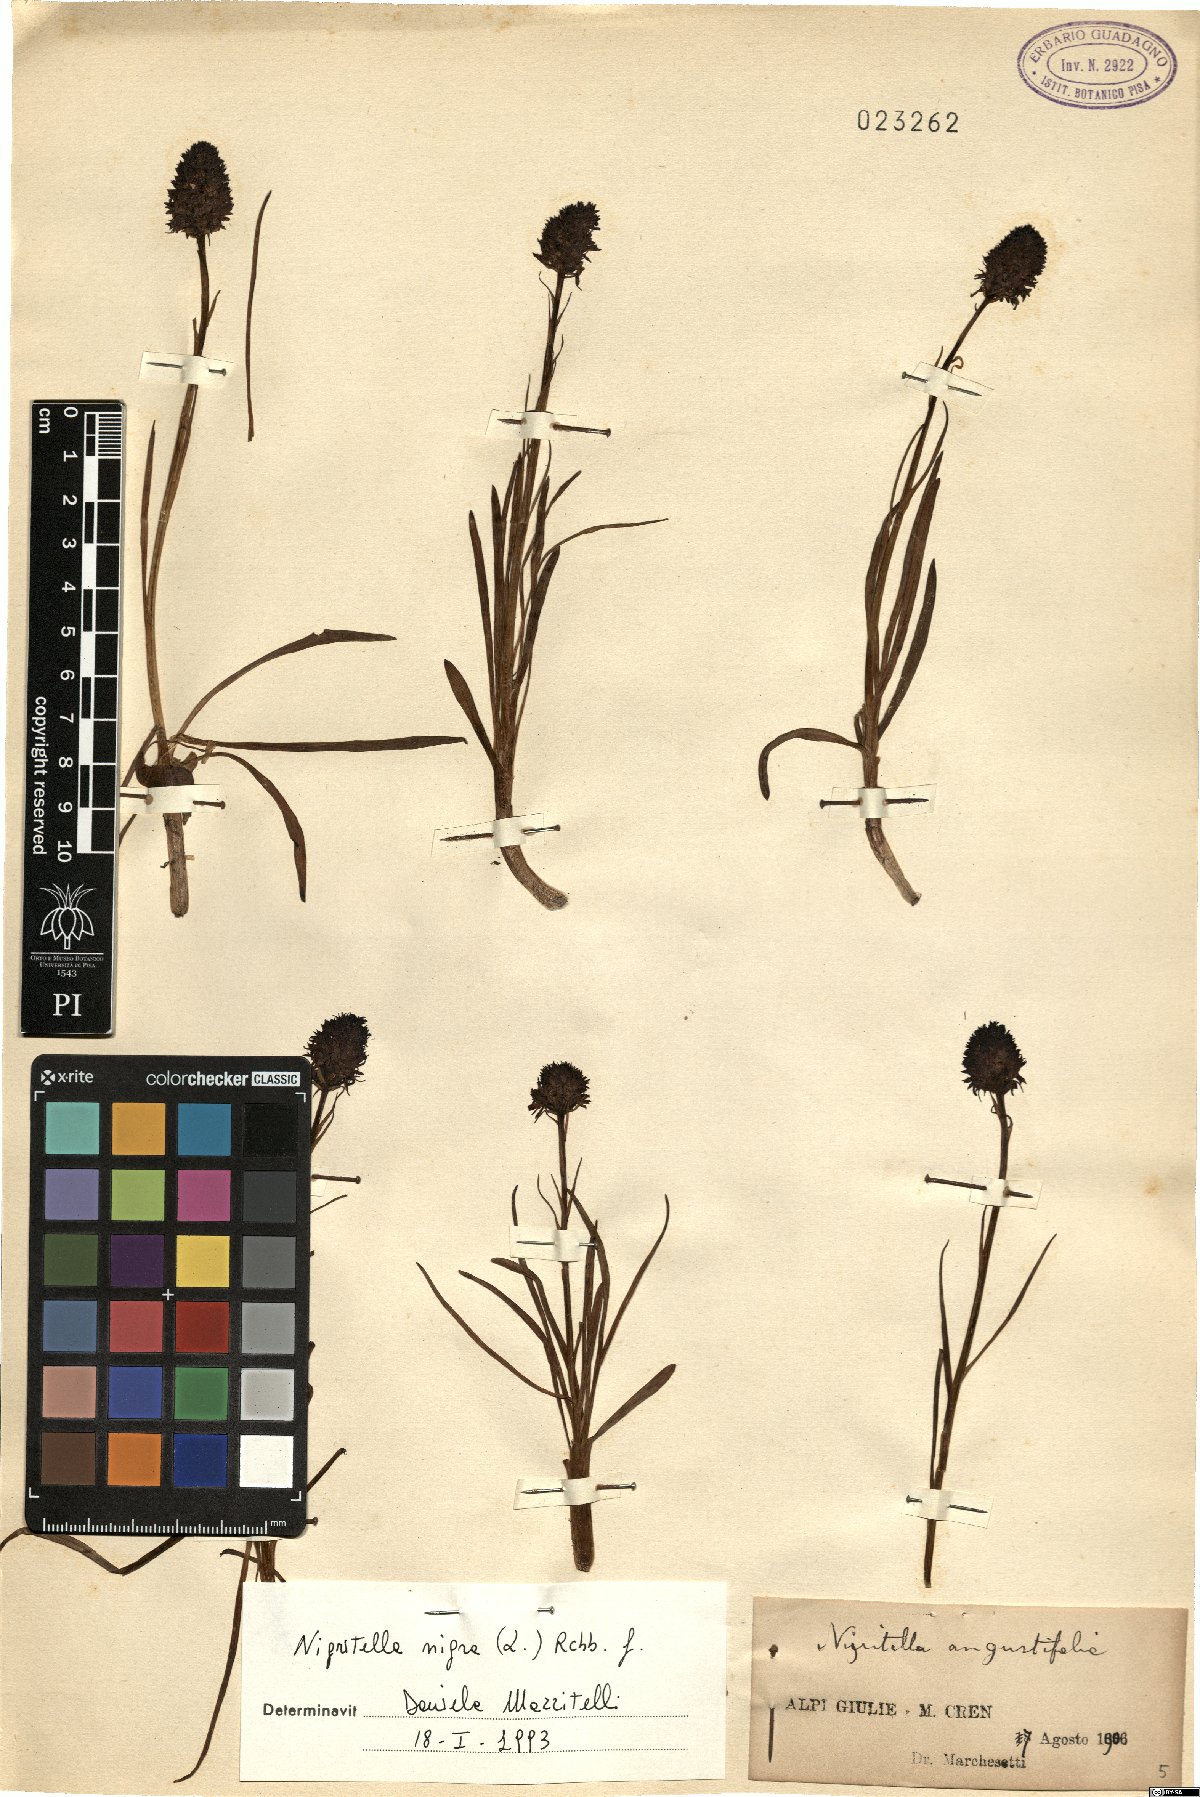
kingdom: Plantae
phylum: Tracheophyta
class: Liliopsida
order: Asparagales
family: Orchidaceae
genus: Gymnadenia
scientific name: Gymnadenia nigra
